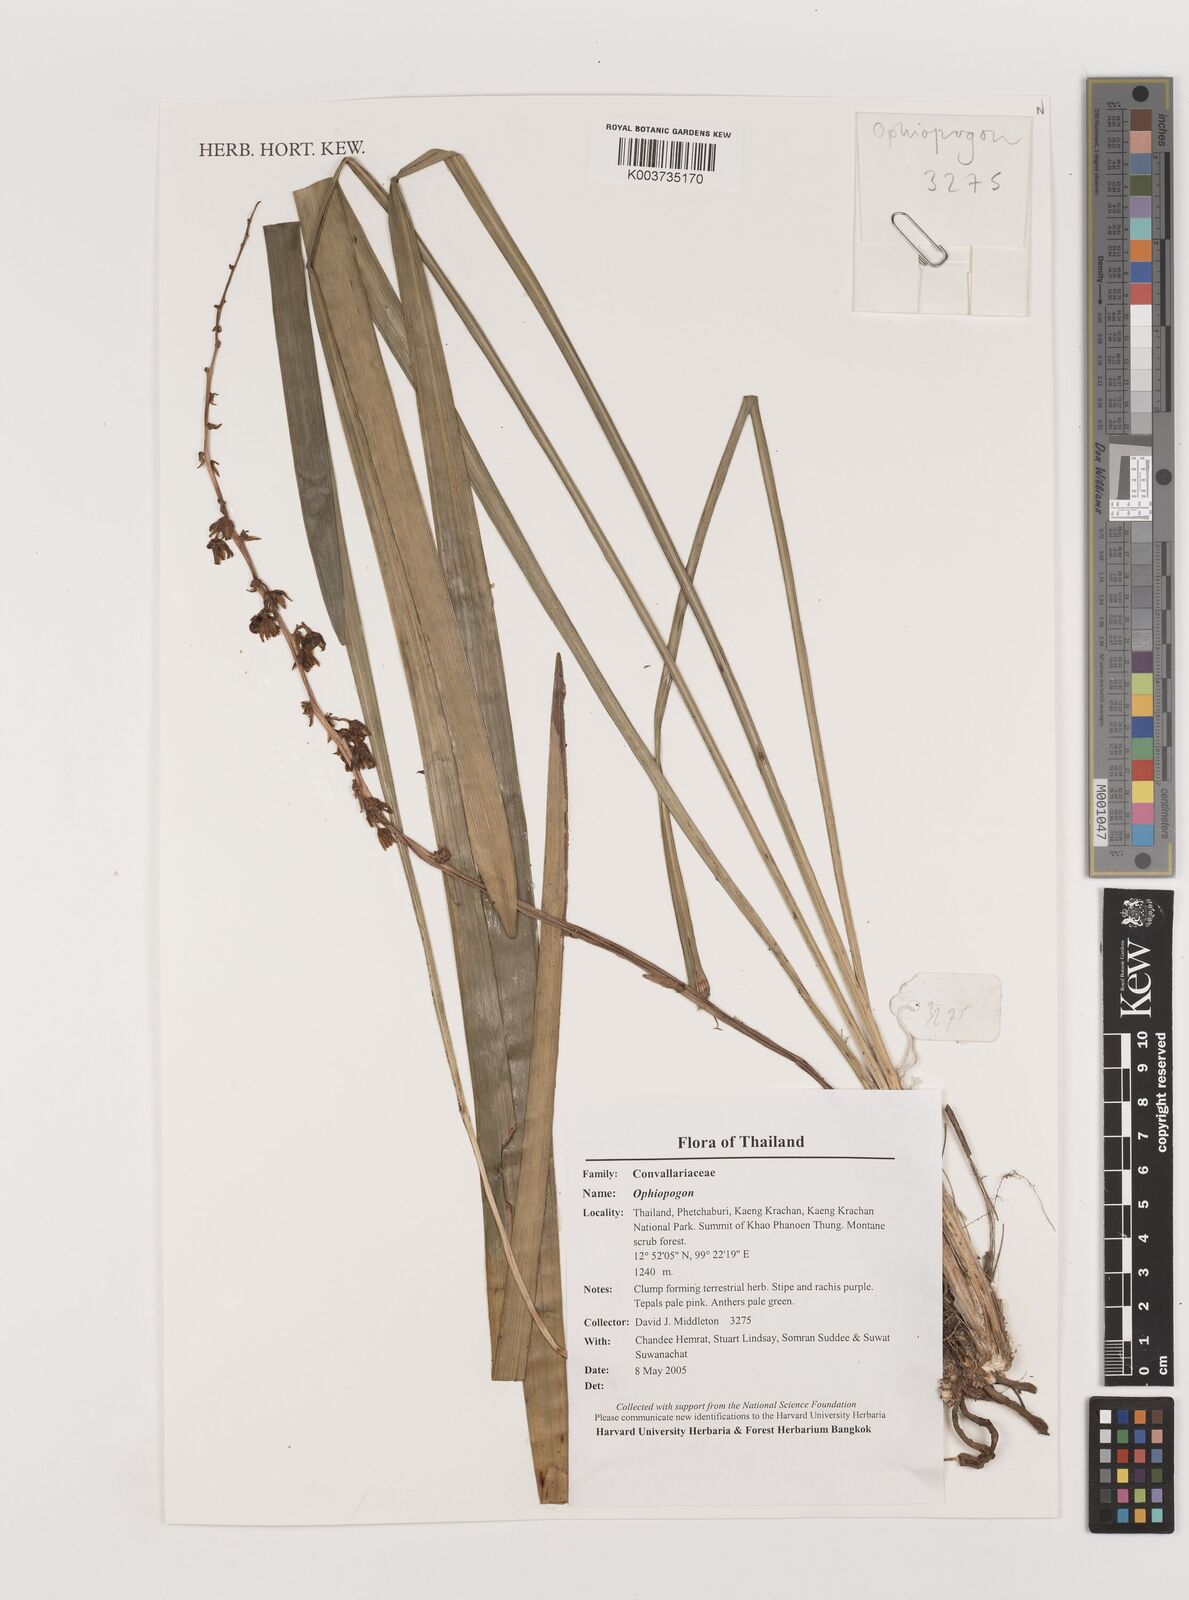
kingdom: Plantae
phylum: Tracheophyta
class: Liliopsida
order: Asparagales
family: Asparagaceae
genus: Ophiopogon
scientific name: Ophiopogon
